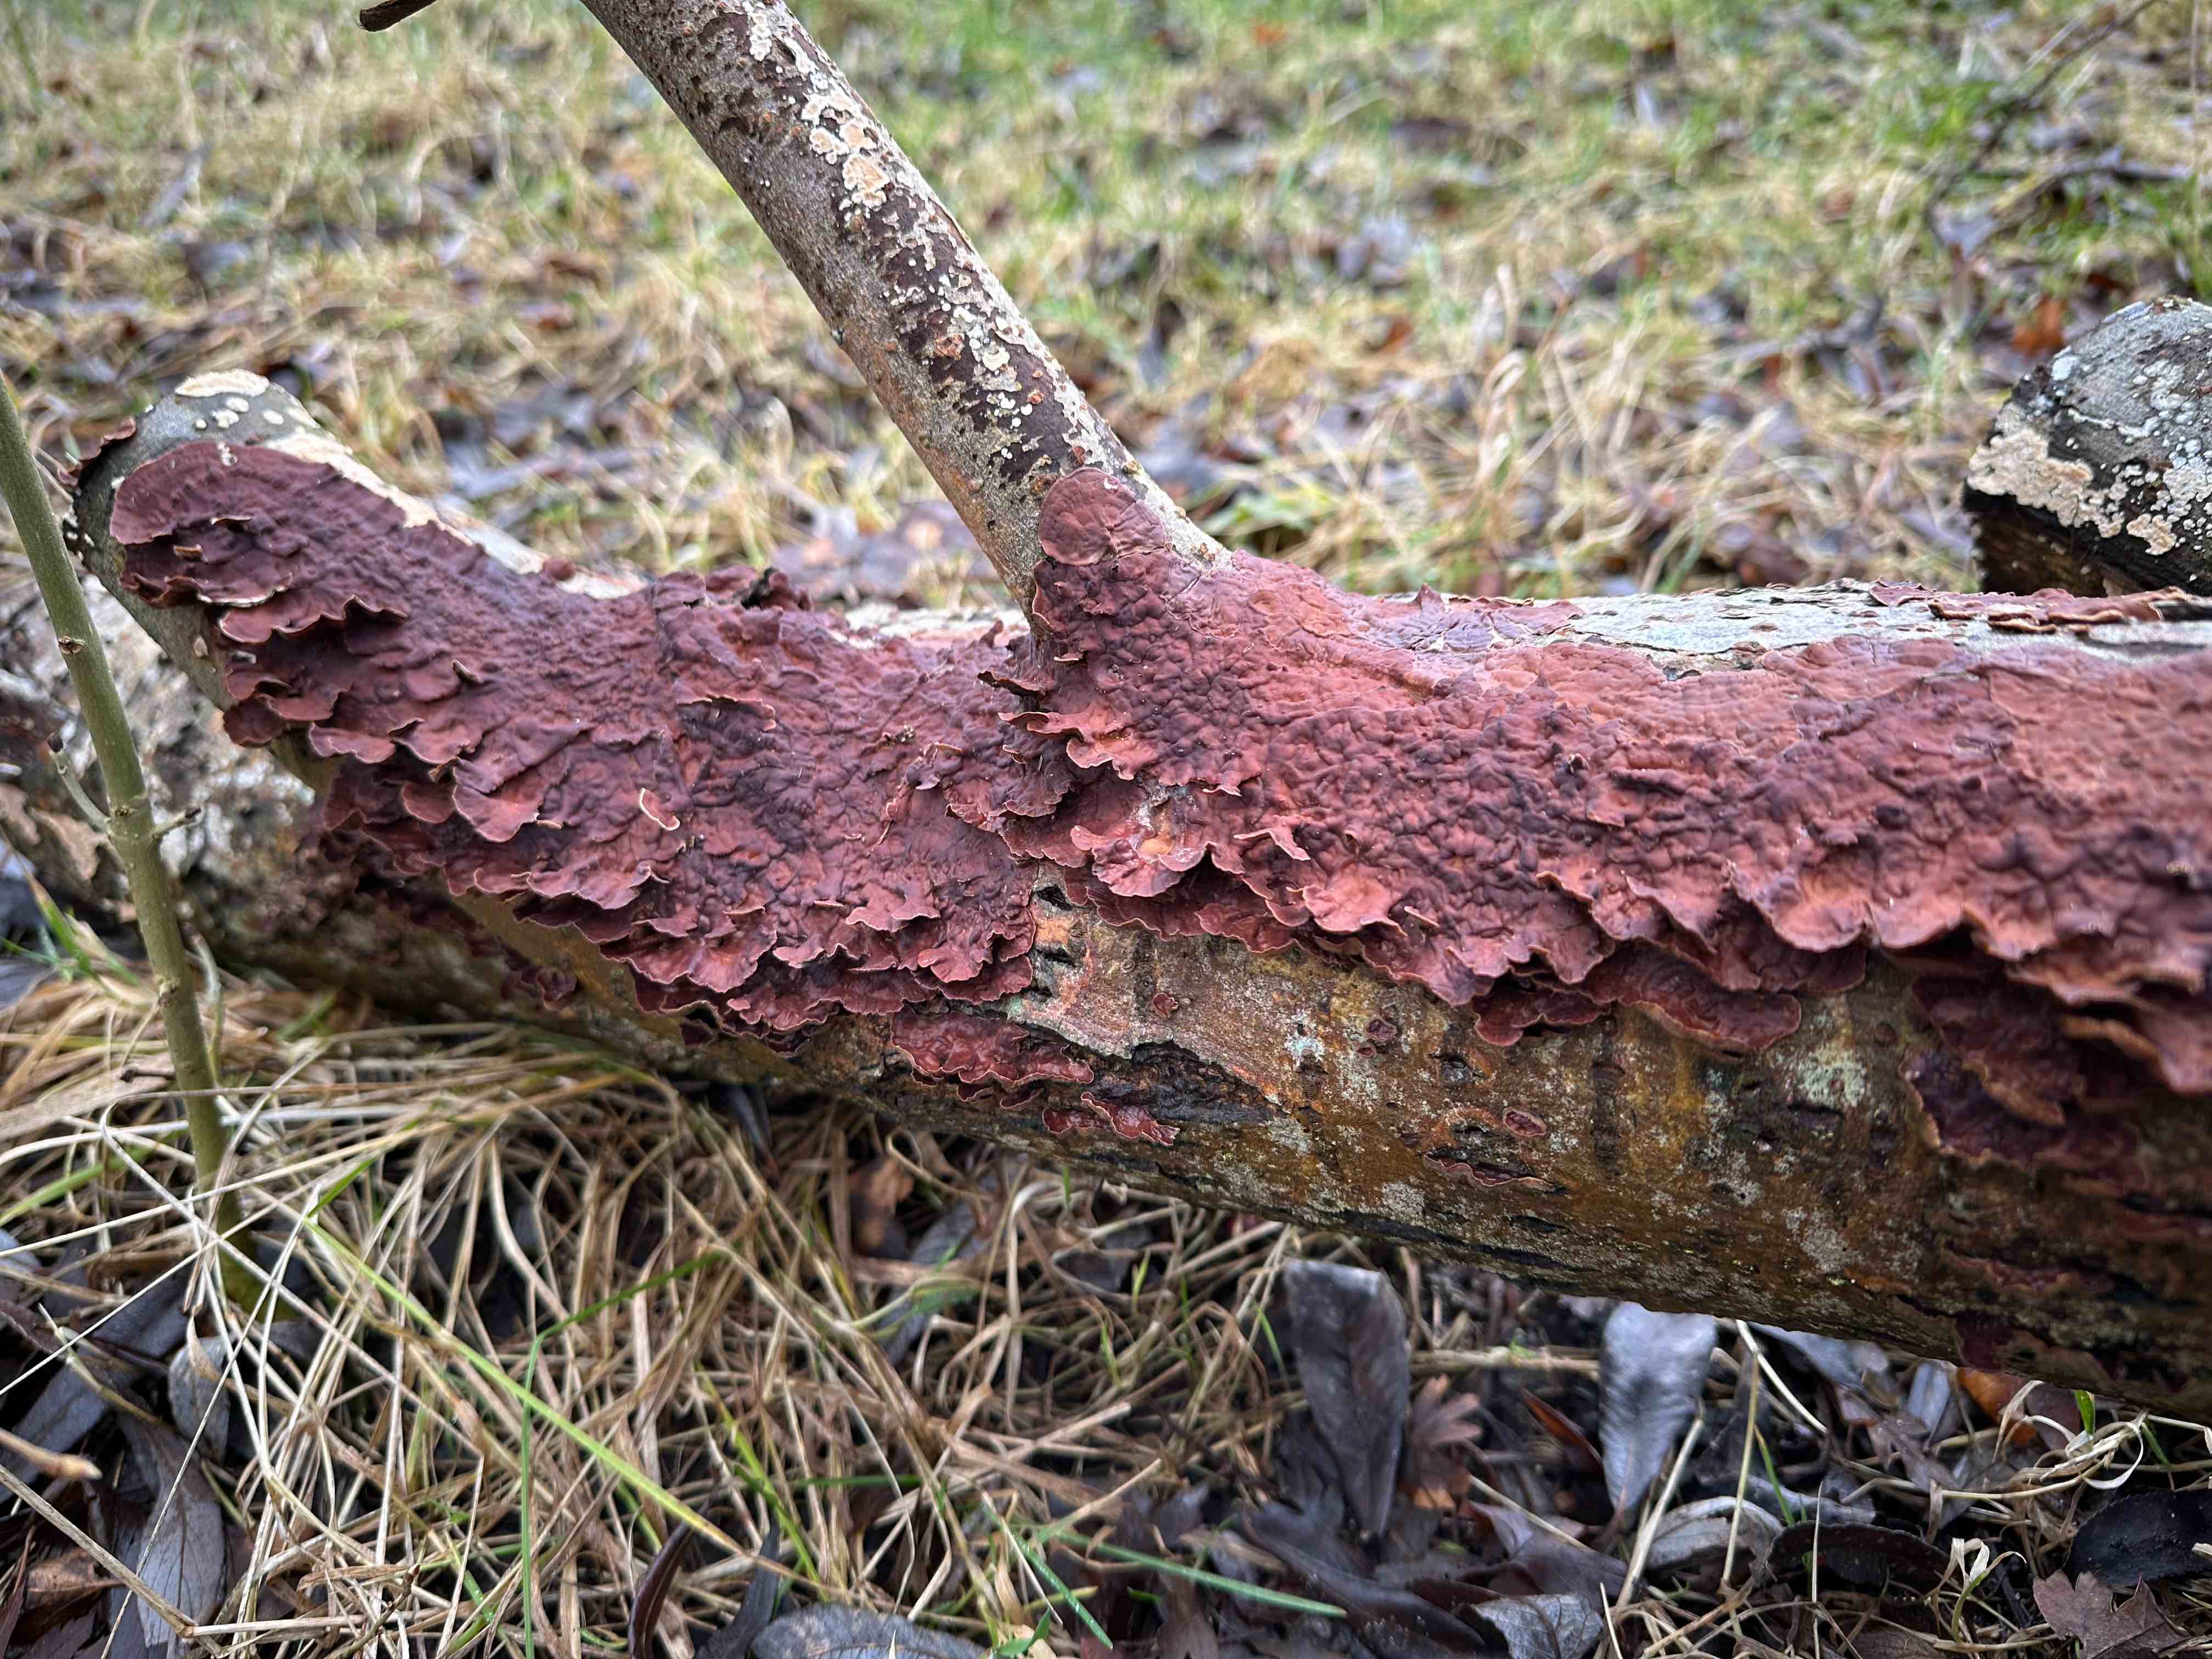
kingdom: Fungi
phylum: Basidiomycota
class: Agaricomycetes
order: Hymenochaetales
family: Hymenochaetaceae
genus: Hydnoporia
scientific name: Hydnoporia tabacina
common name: tobaksbrun ruslædersvamp
